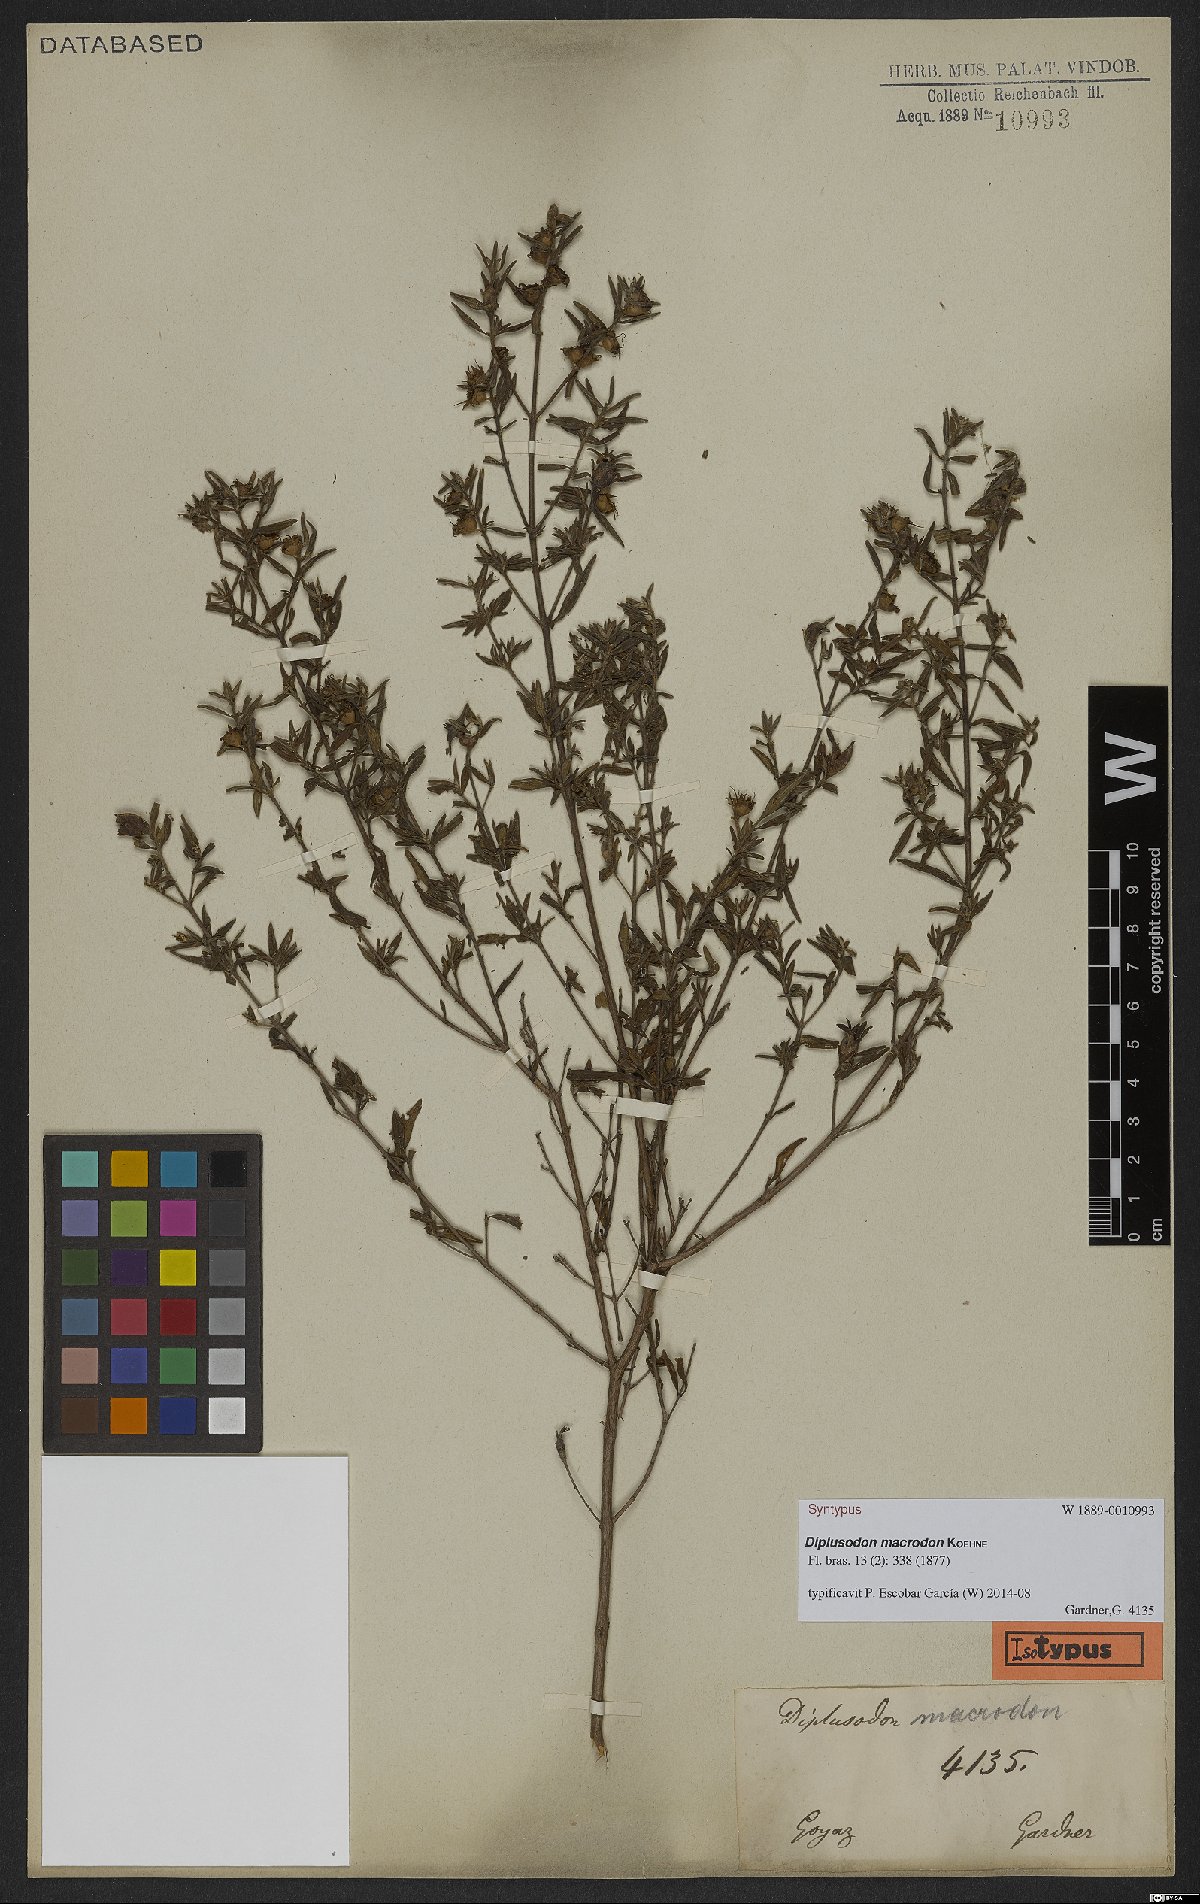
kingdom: Plantae
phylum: Tracheophyta
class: Magnoliopsida
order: Myrtales
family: Lythraceae
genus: Diplusodon
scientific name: Diplusodon macrodon
